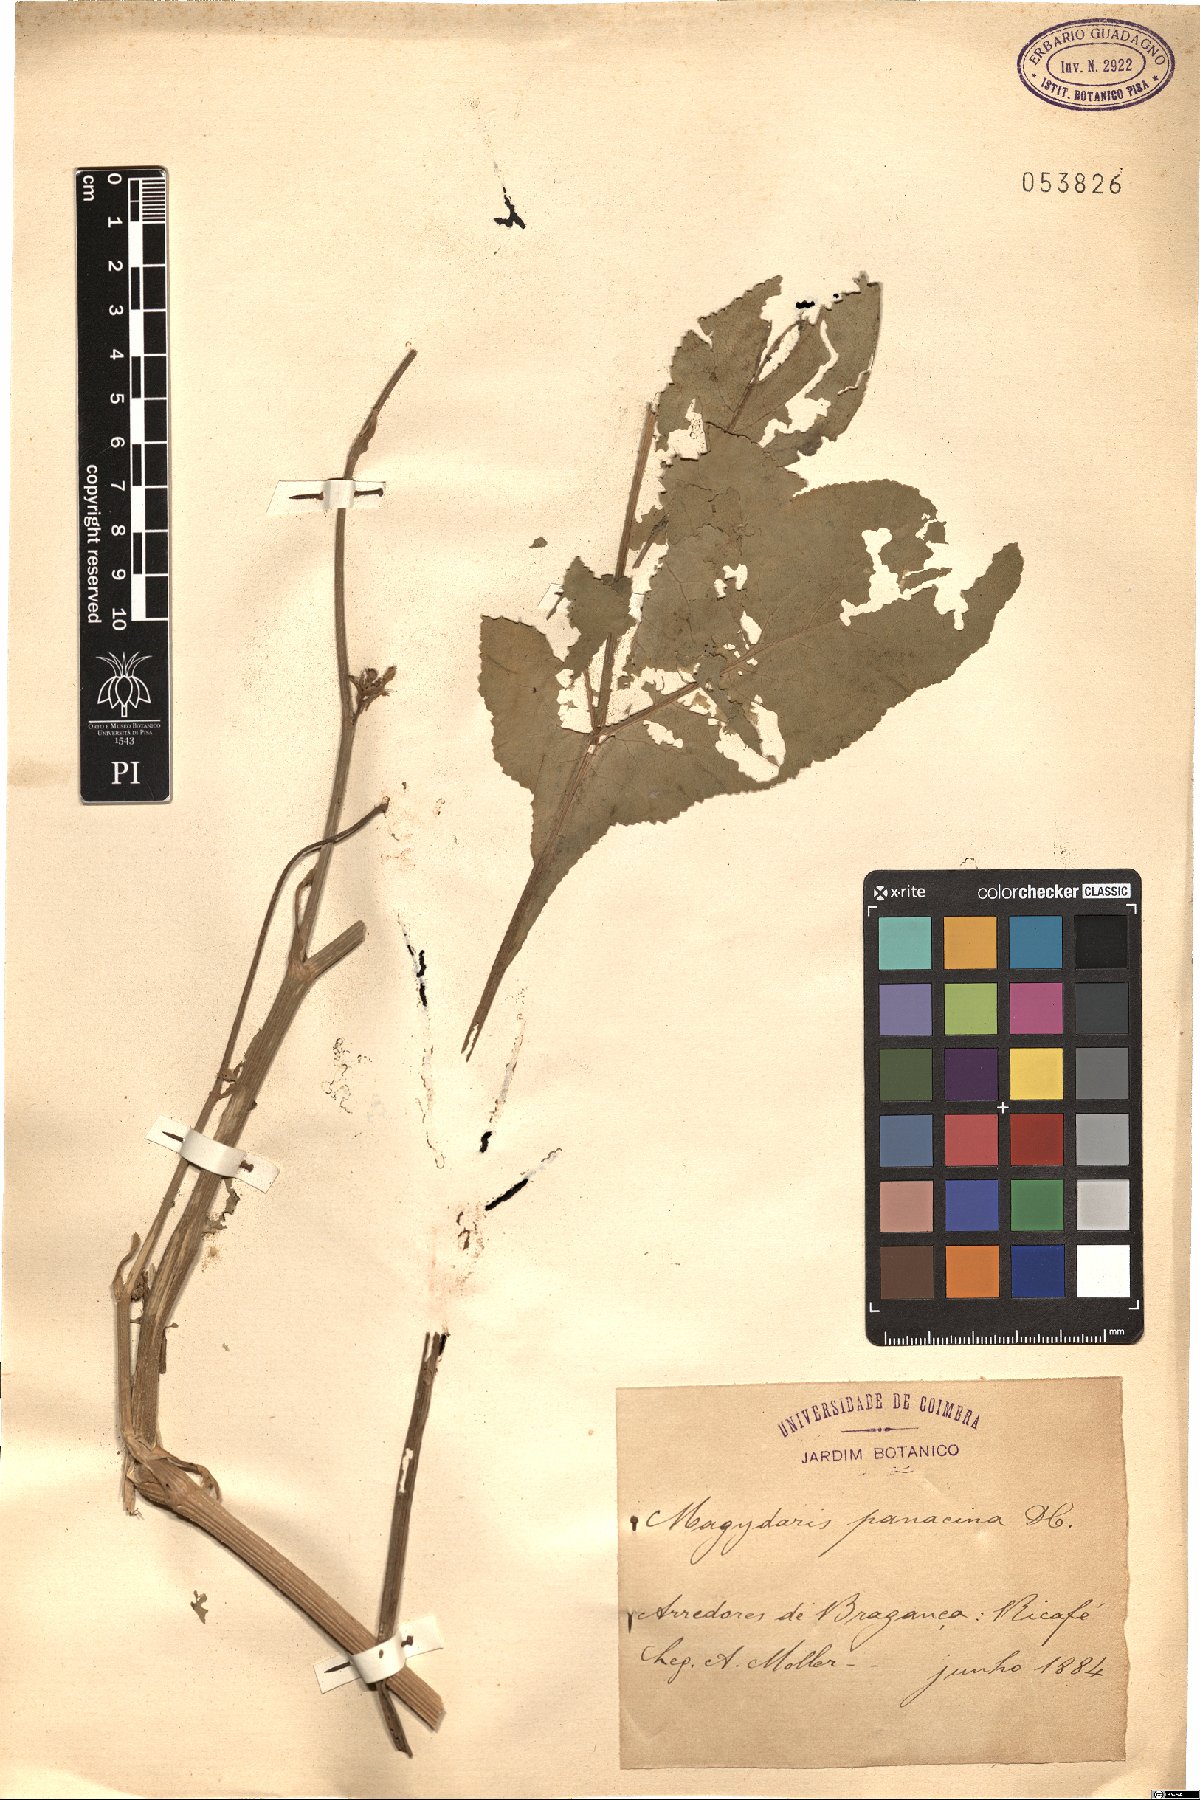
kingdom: Plantae
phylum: Tracheophyta
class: Magnoliopsida
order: Apiales
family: Apiaceae
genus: Magydaris
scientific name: Magydaris panacifolia
